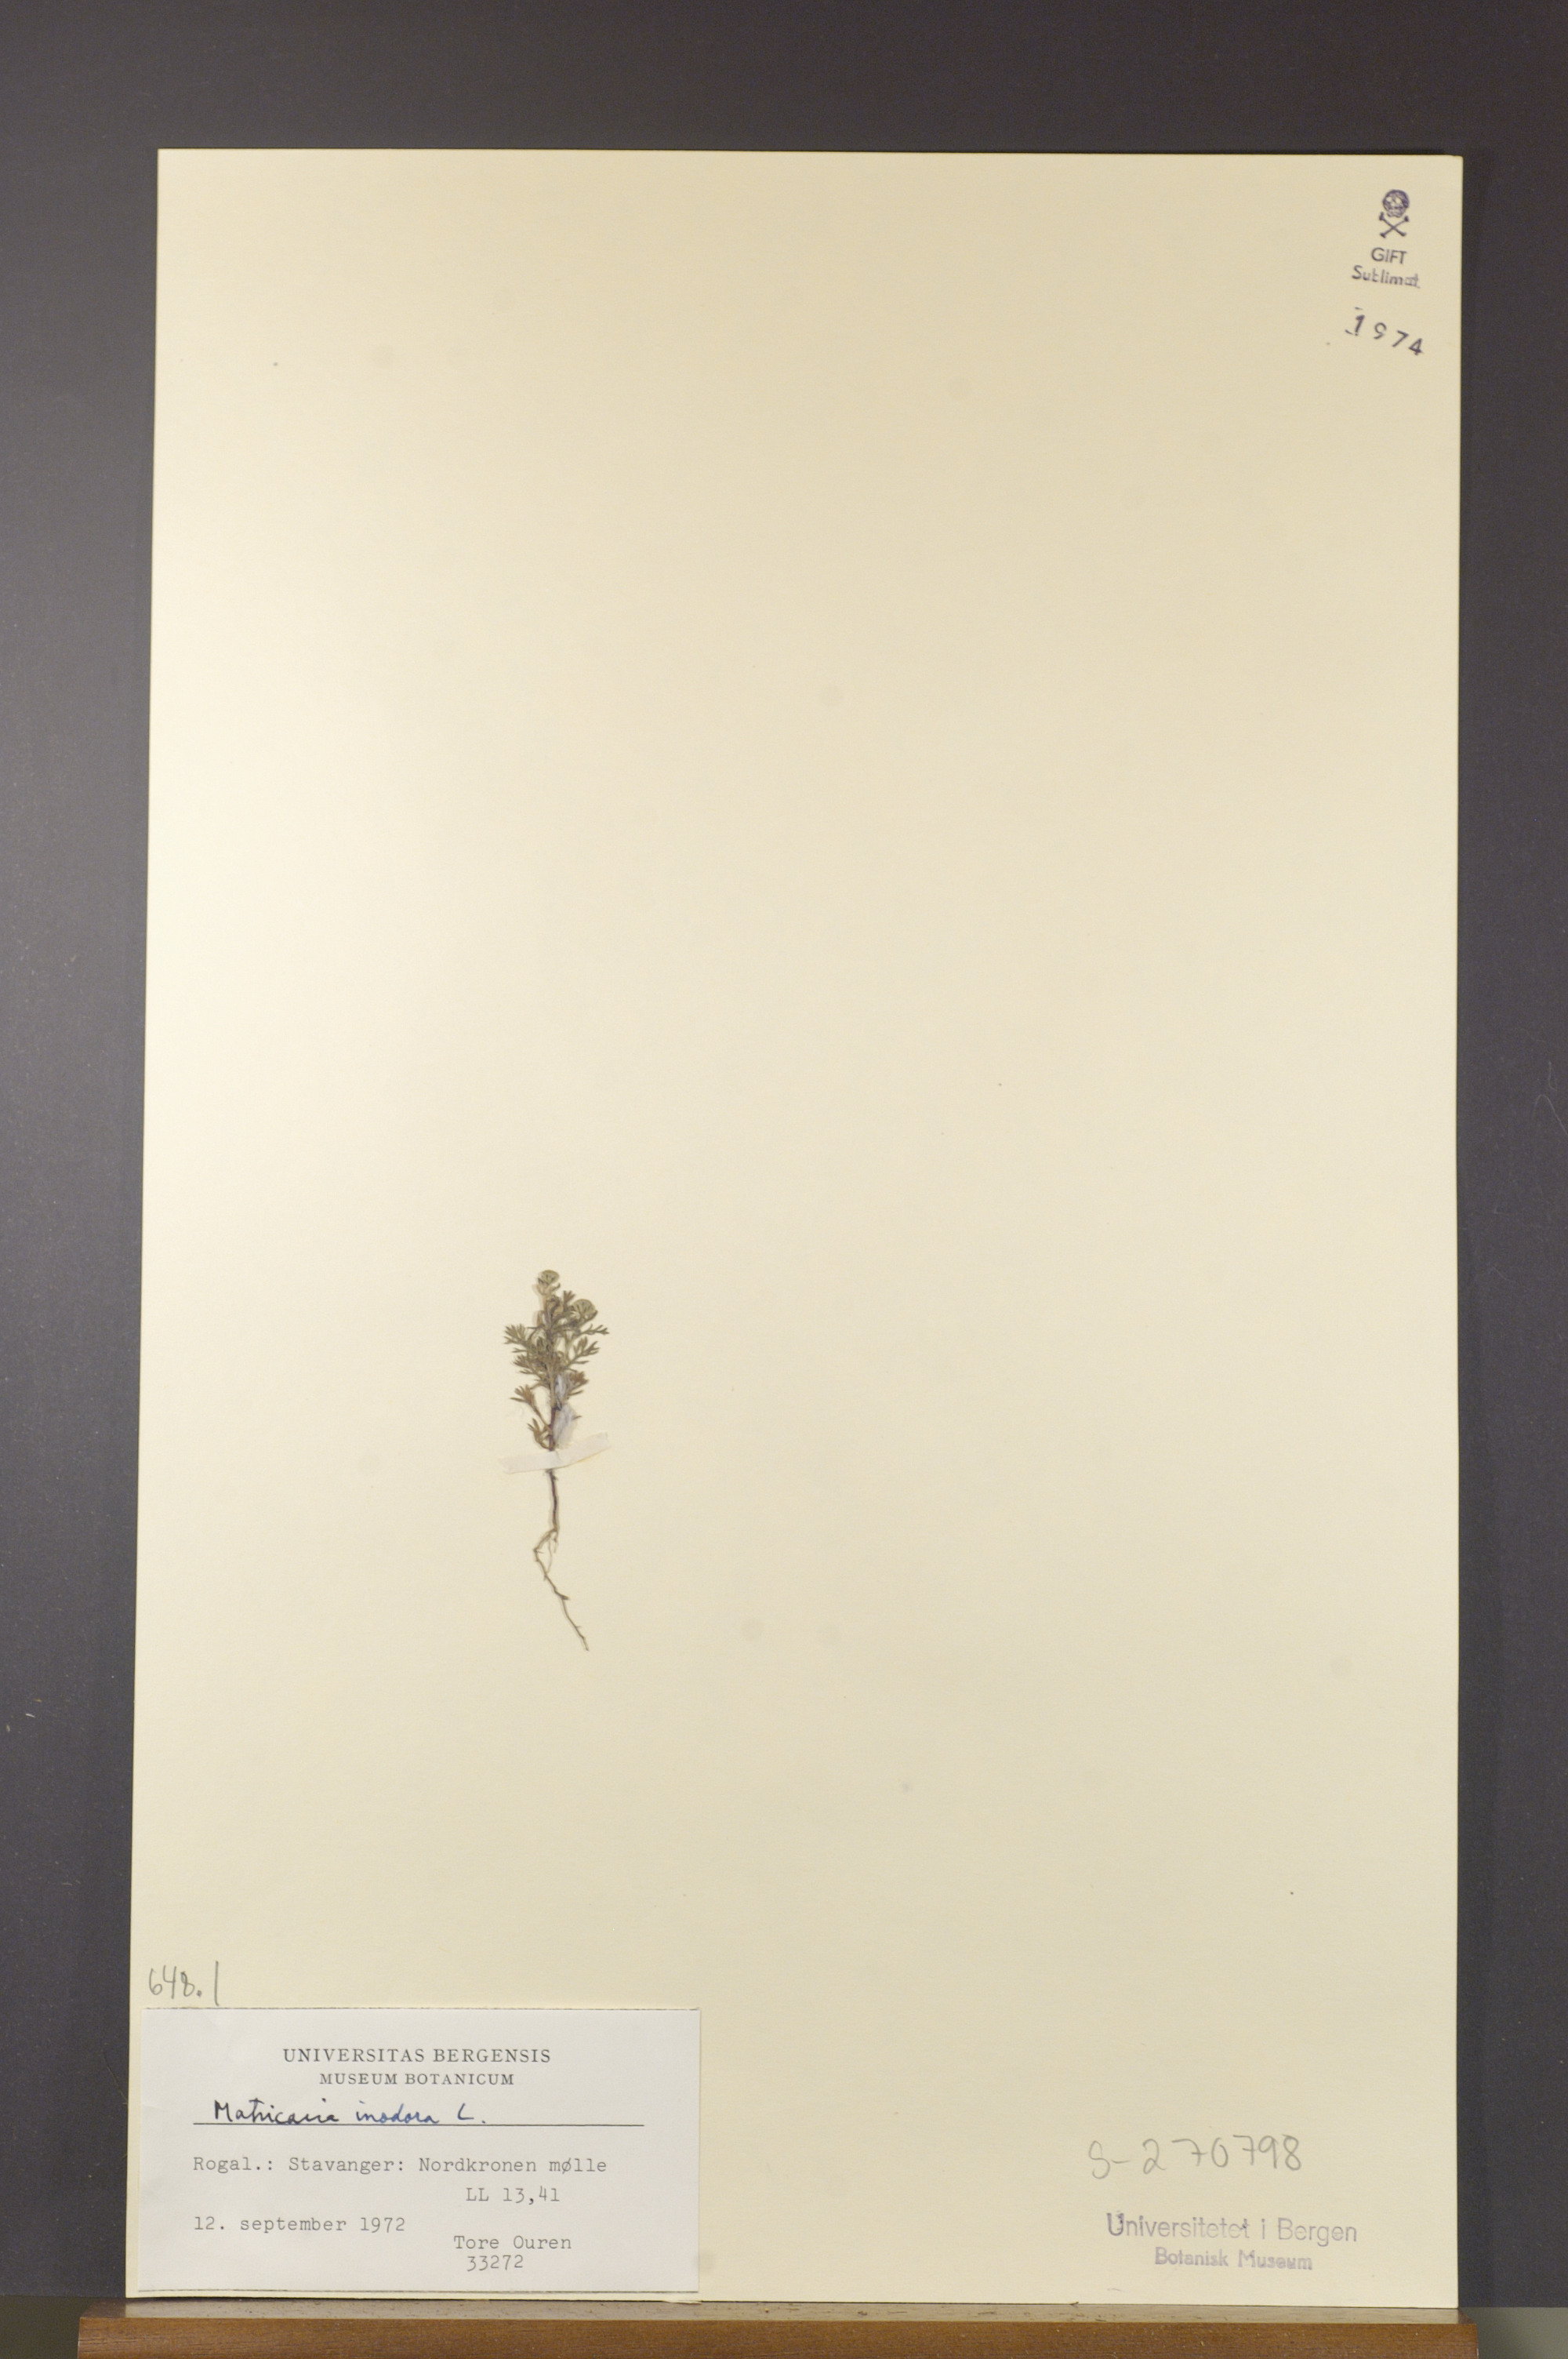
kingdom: Plantae
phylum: Tracheophyta
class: Magnoliopsida
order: Asterales
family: Asteraceae
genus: Tripleurospermum
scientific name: Tripleurospermum inodorum
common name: Scentless mayweed
